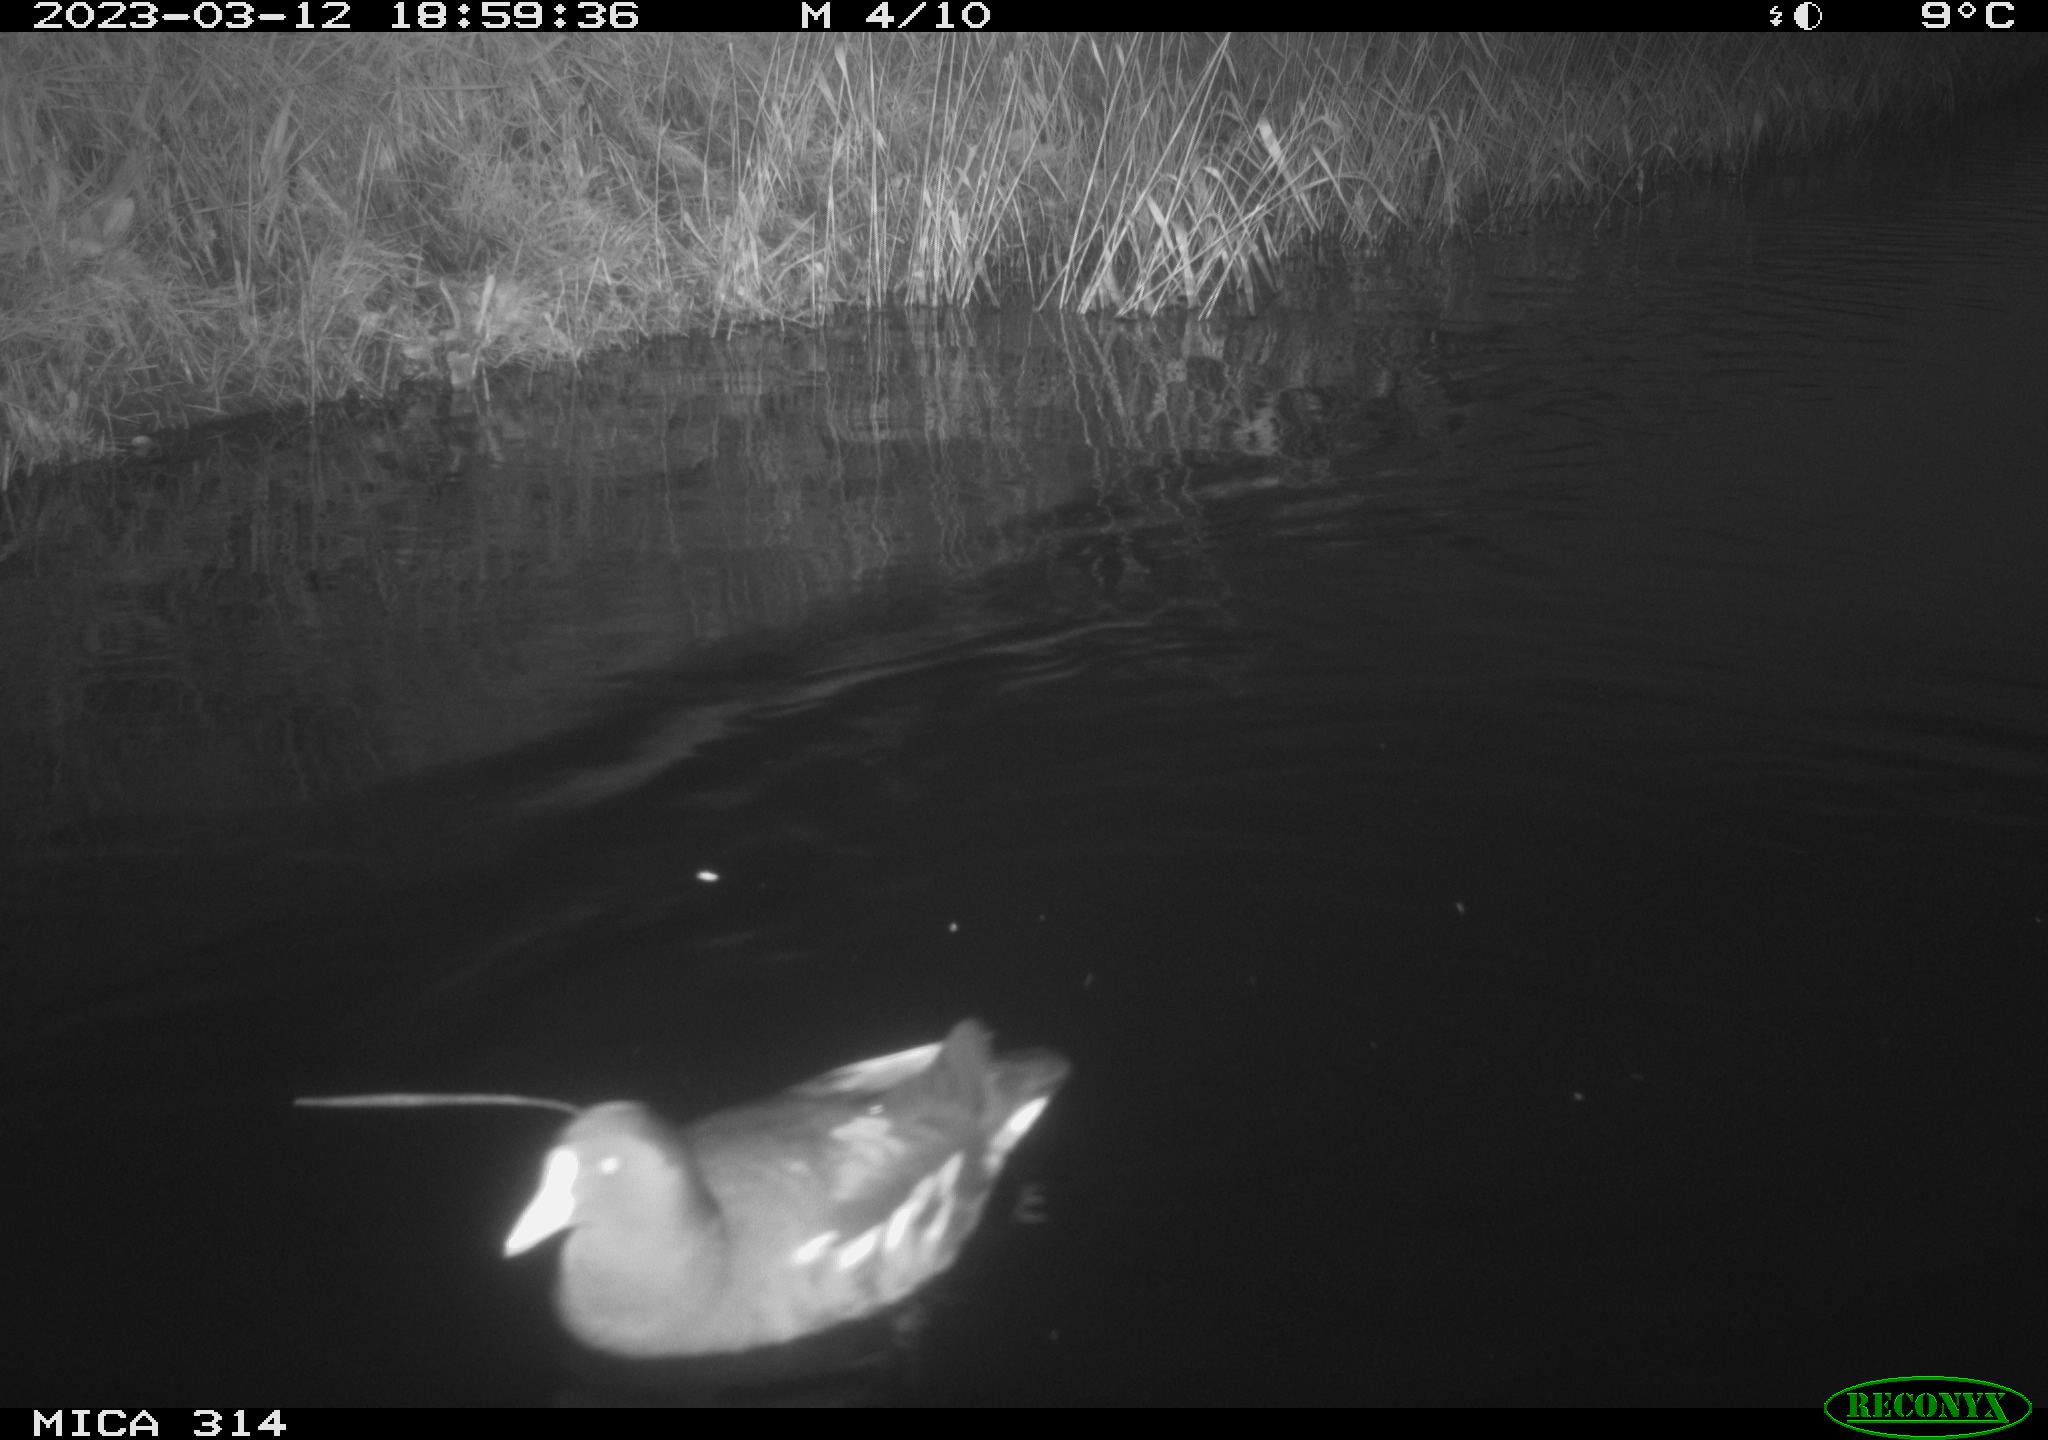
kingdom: Animalia
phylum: Chordata
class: Aves
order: Gruiformes
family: Rallidae
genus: Gallinula
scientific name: Gallinula chloropus
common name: Common moorhen
